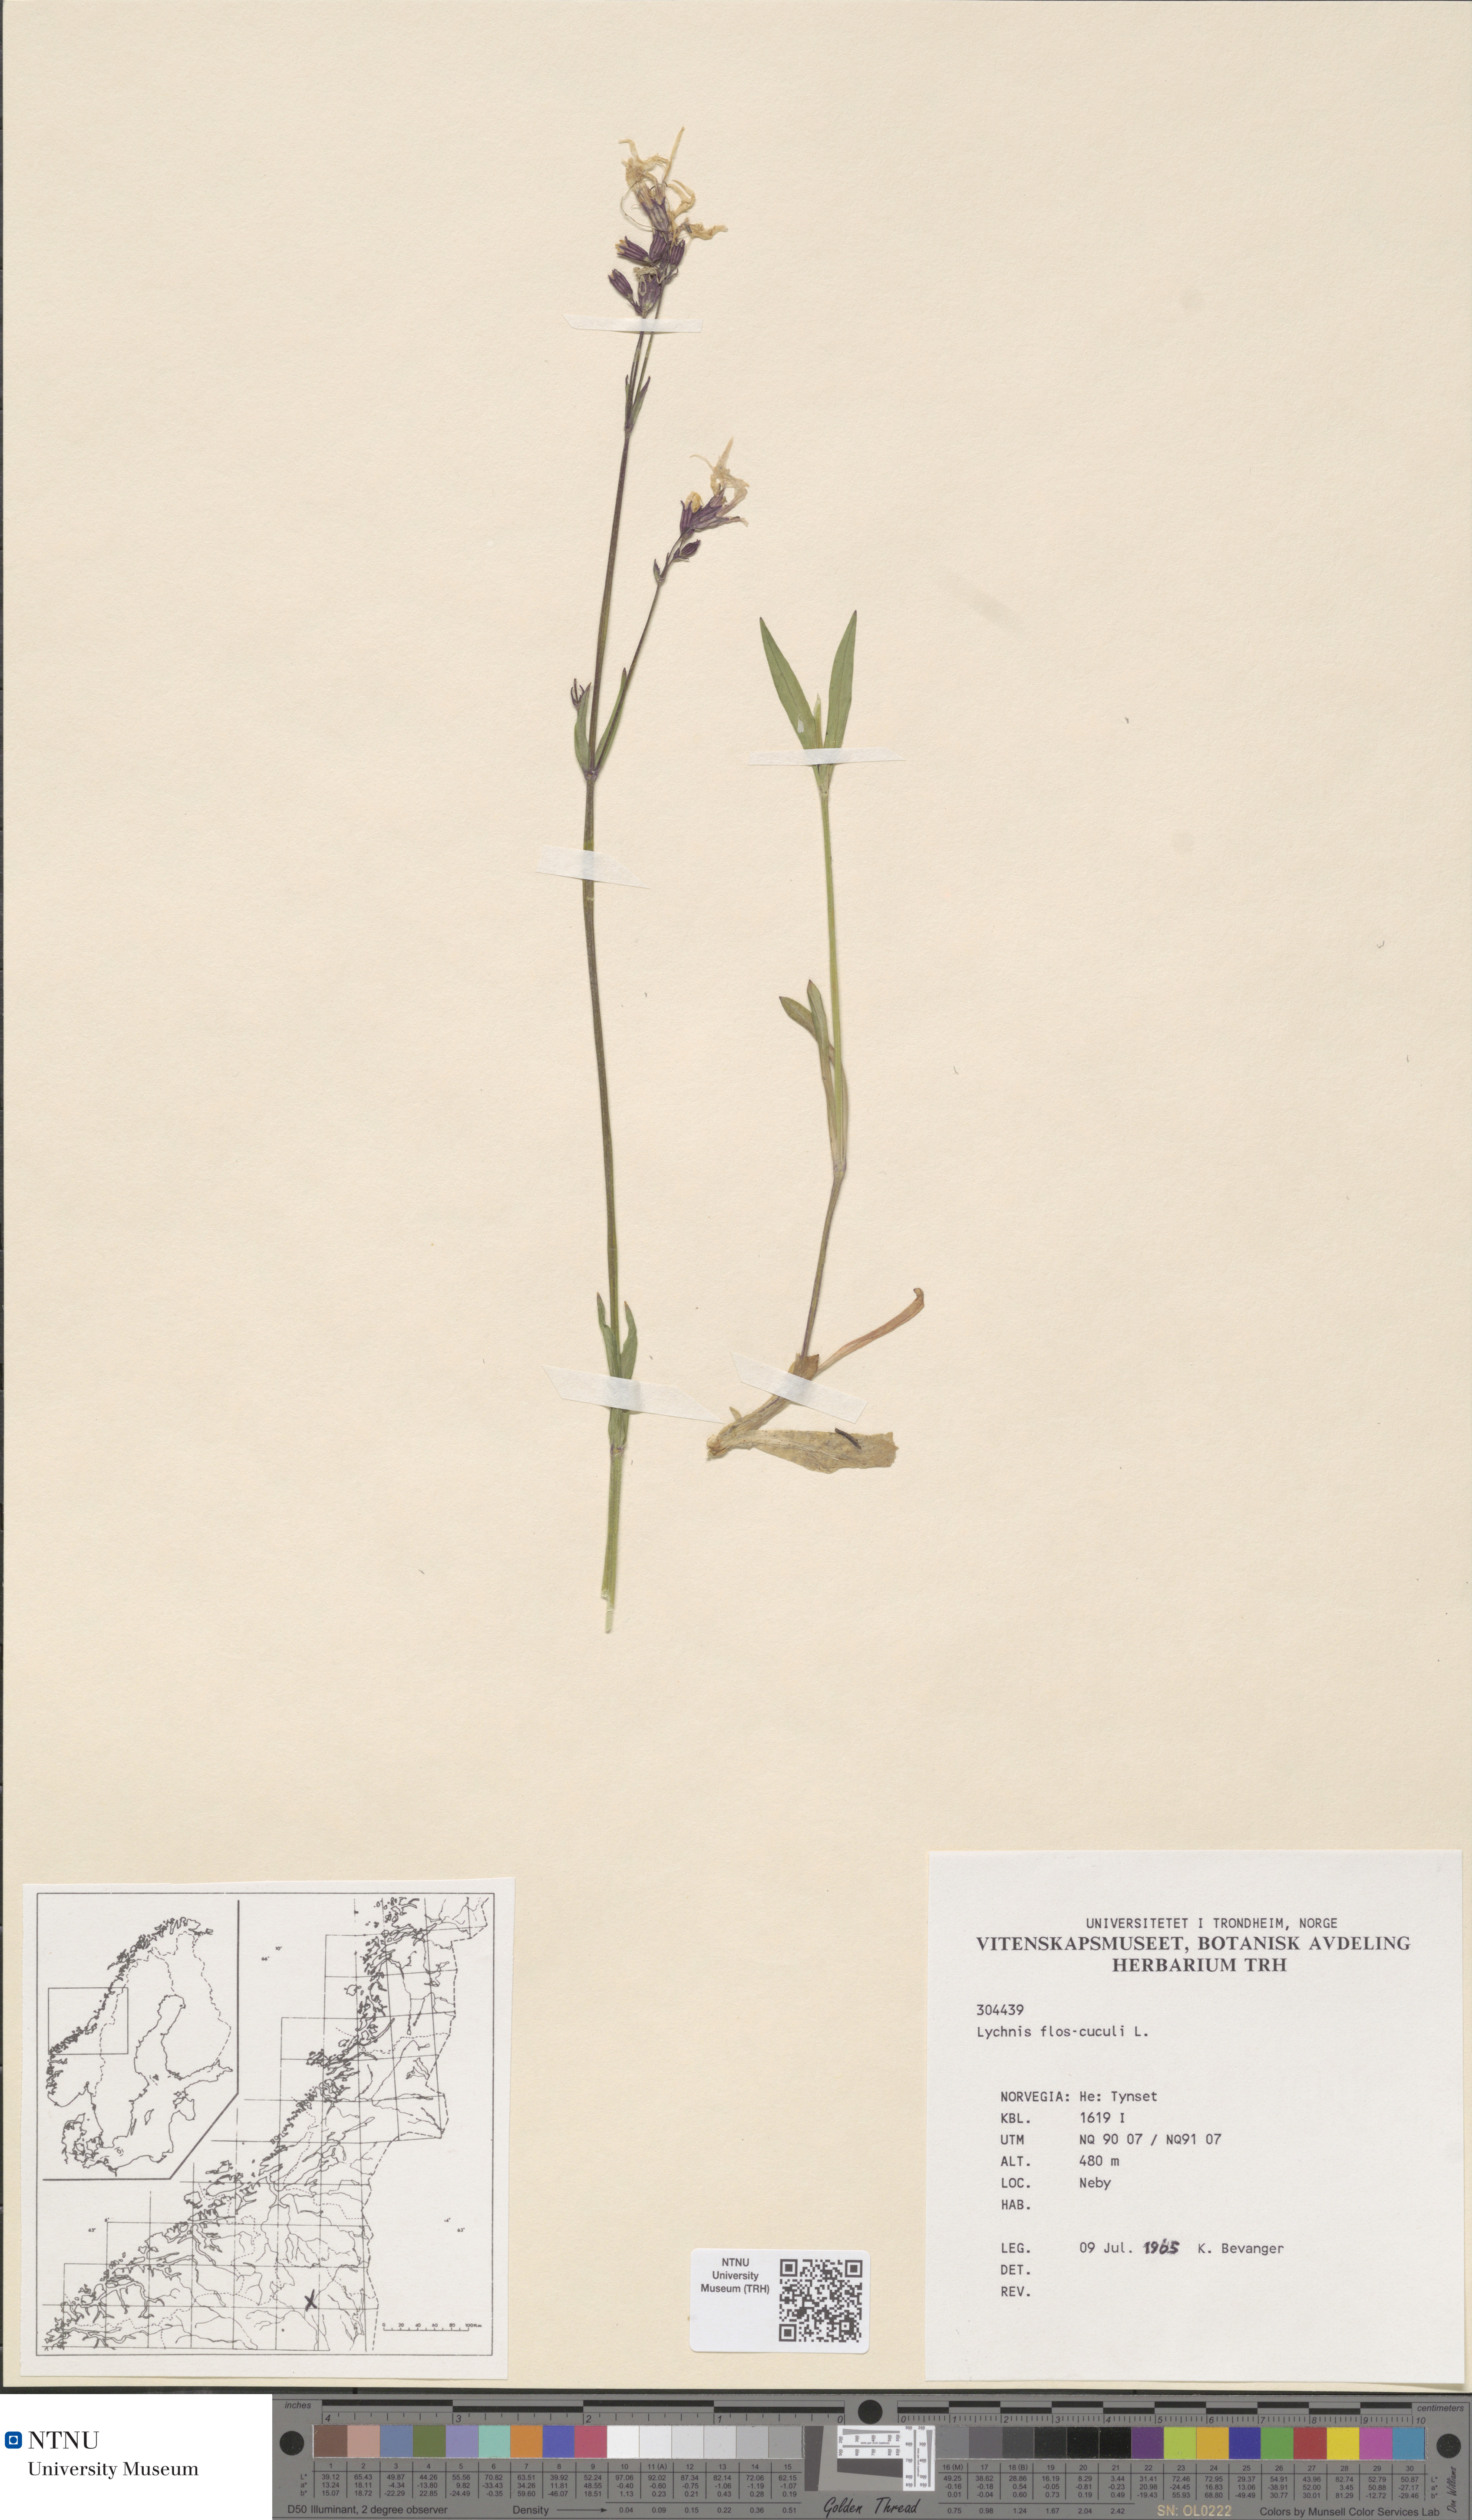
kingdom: Plantae
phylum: Tracheophyta
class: Magnoliopsida
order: Caryophyllales
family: Caryophyllaceae
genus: Silene
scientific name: Silene flos-cuculi
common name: Ragged-robin
